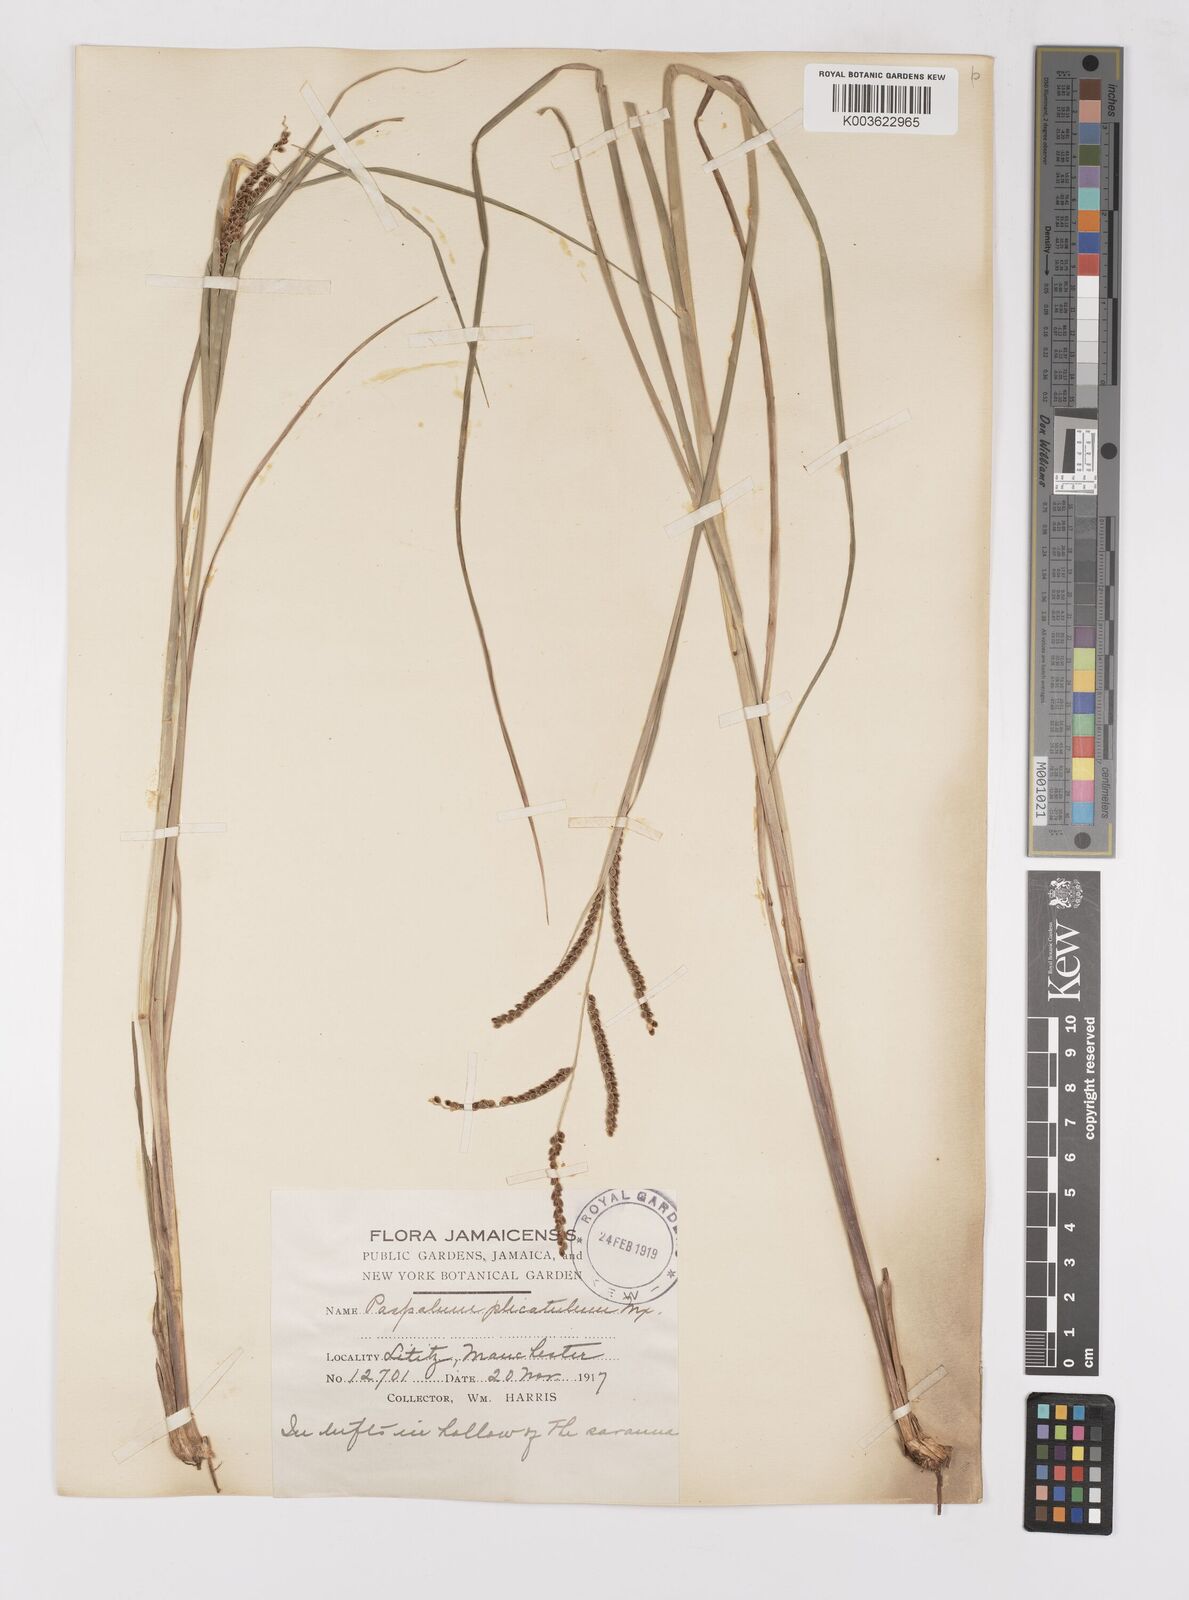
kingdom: Plantae
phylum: Tracheophyta
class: Liliopsida
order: Poales
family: Poaceae
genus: Paspalum
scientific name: Paspalum
